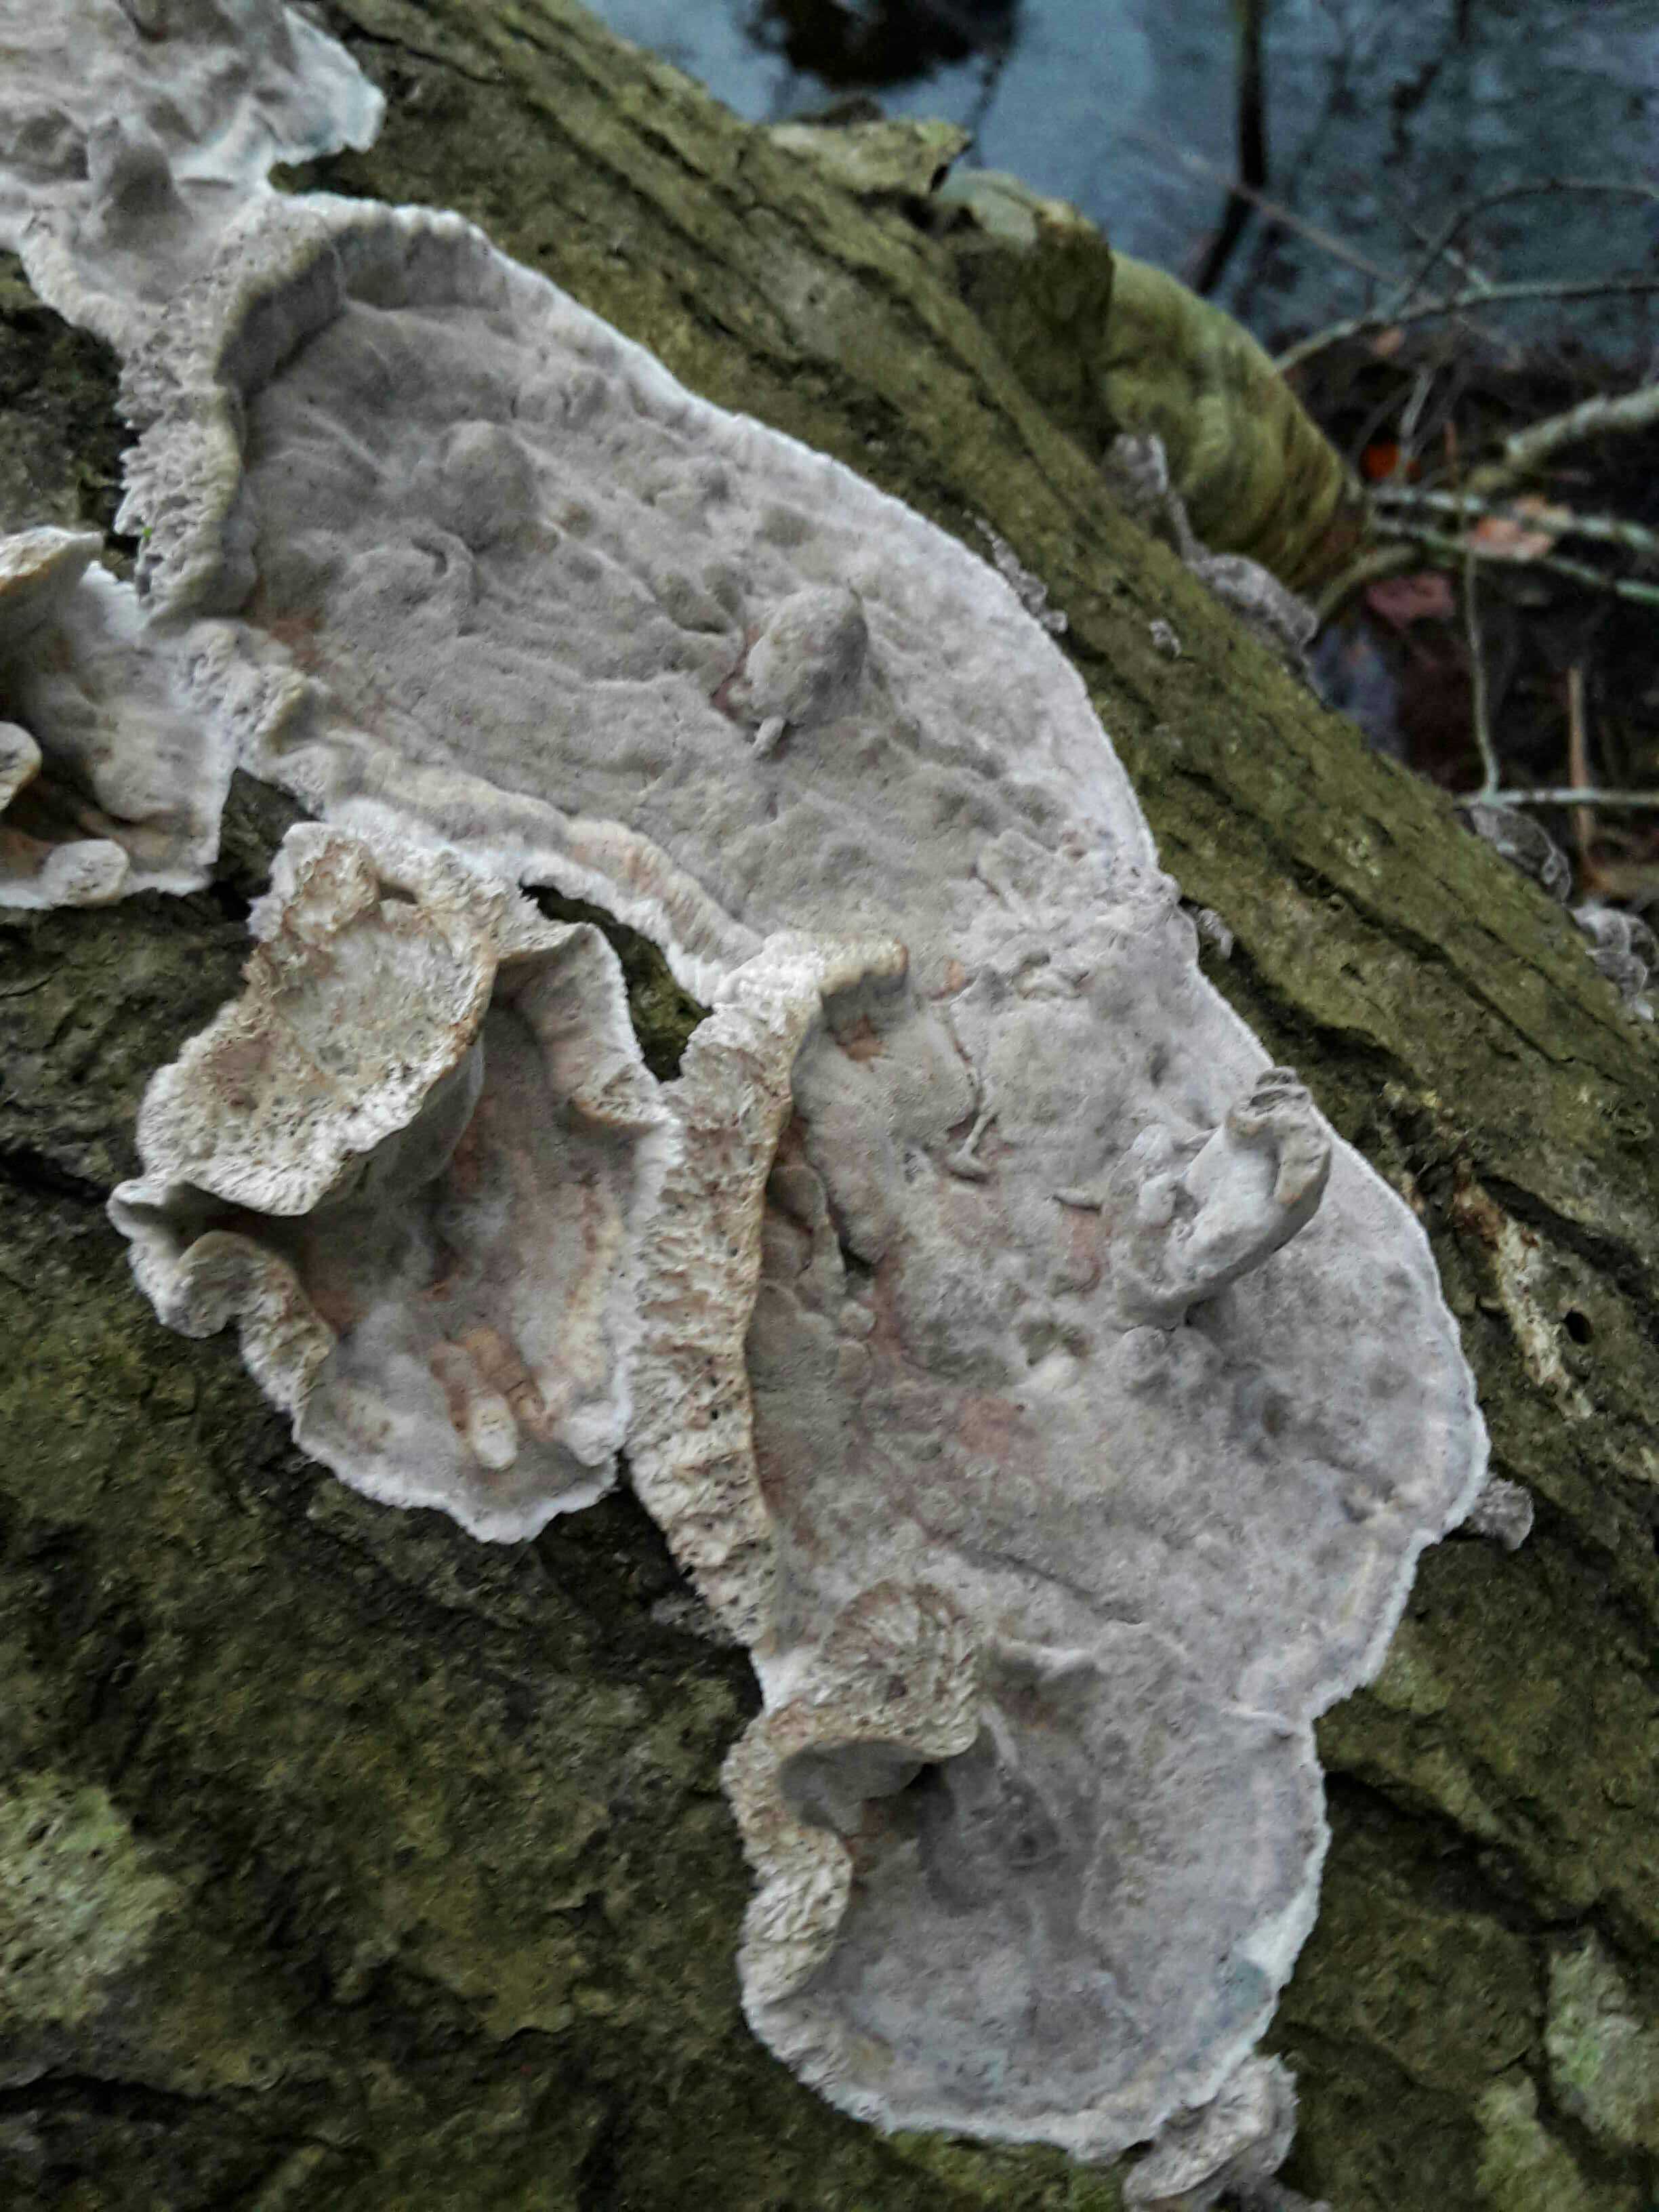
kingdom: Fungi
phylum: Basidiomycota
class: Agaricomycetes
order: Polyporales
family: Phanerochaetaceae
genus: Bjerkandera
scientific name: Bjerkandera adusta
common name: sveden sodporesvamp
